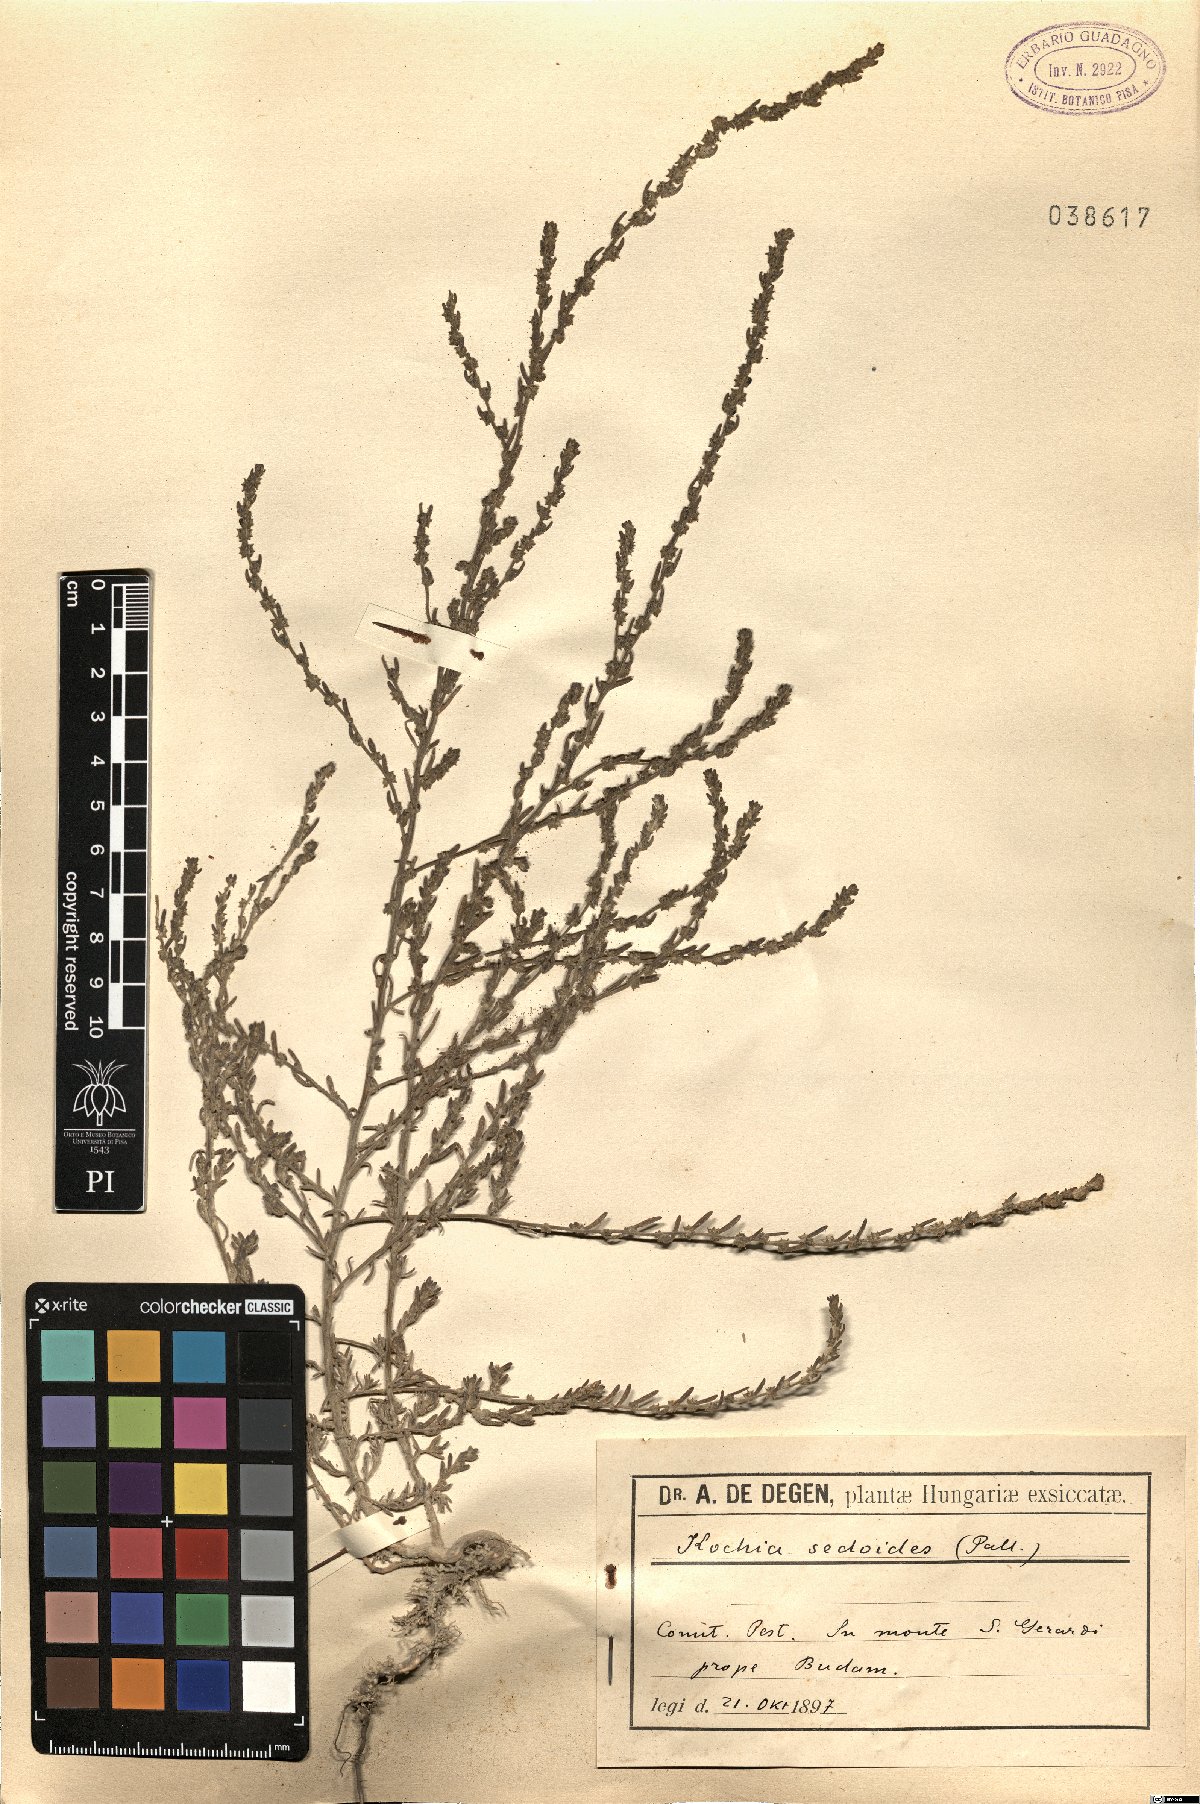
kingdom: Plantae
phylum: Tracheophyta
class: Magnoliopsida
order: Caryophyllales
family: Amaranthaceae
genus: Suaeda
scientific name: Suaeda maritima
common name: Annual sea-blite
